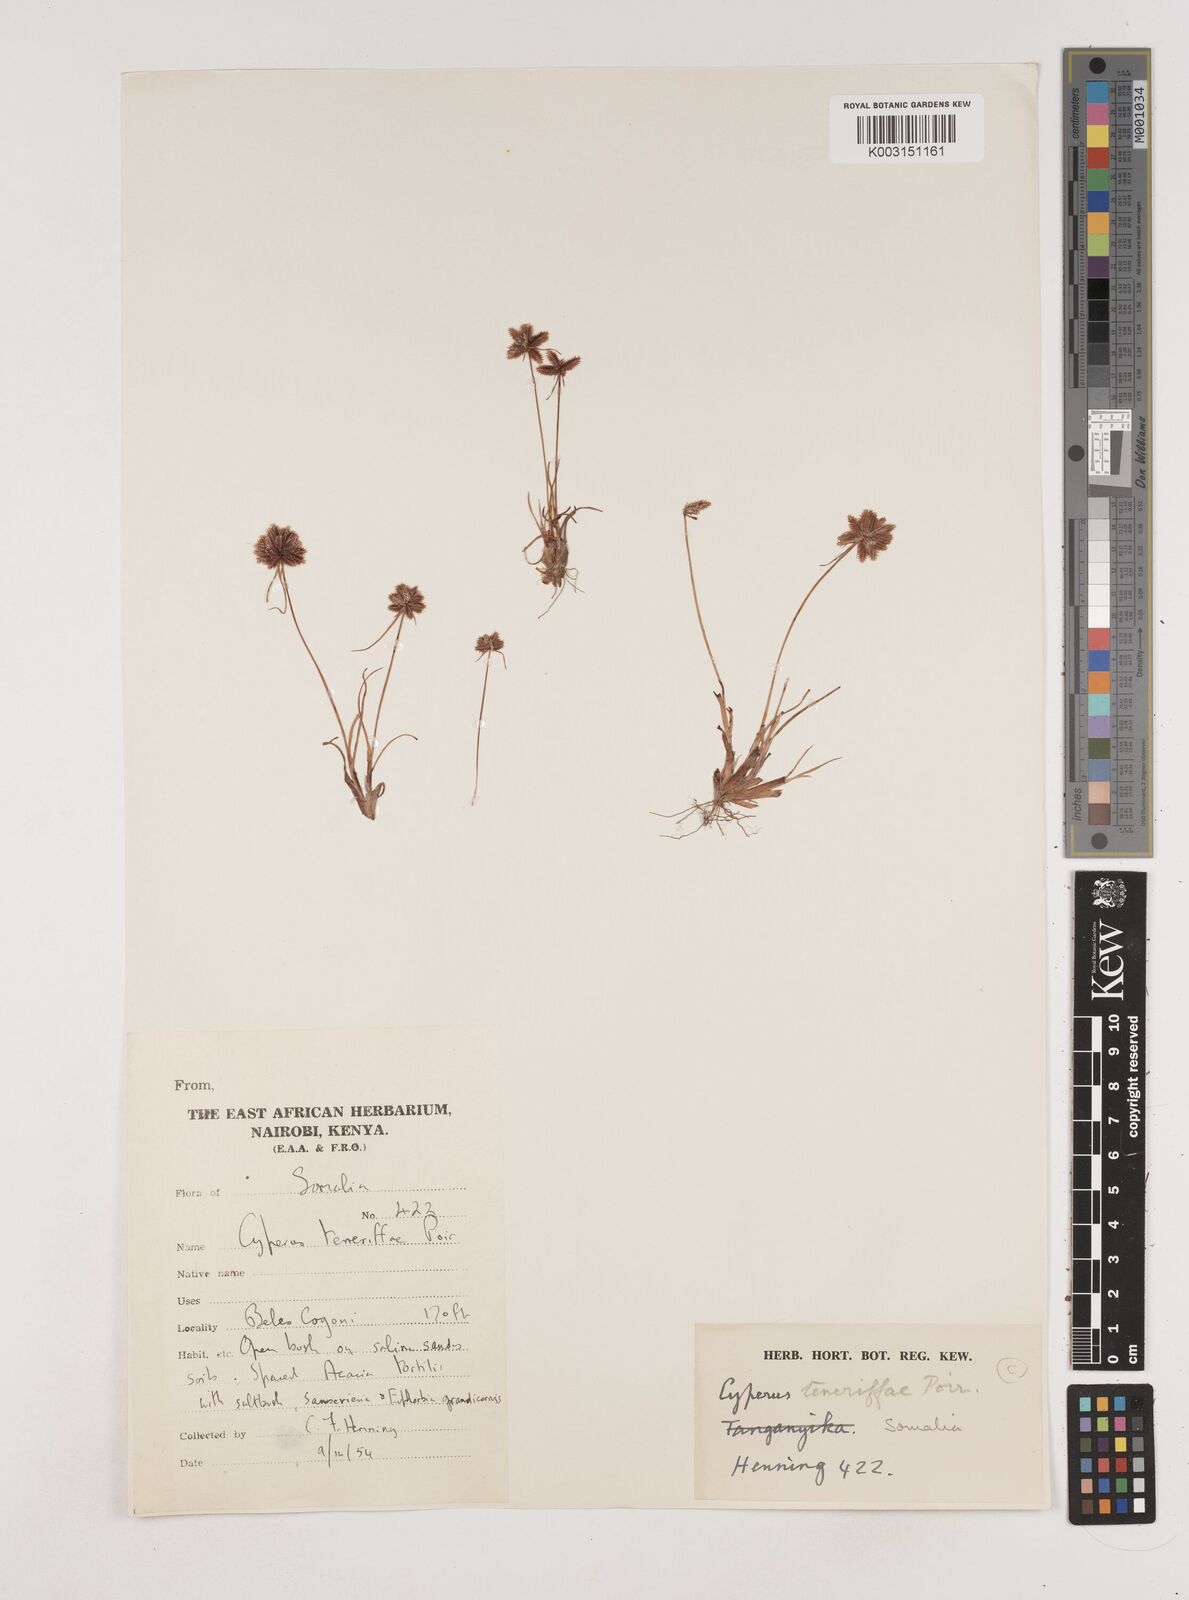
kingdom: Plantae
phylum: Tracheophyta
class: Liliopsida
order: Poales
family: Cyperaceae
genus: Cyperus
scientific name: Cyperus rubicundus
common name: Coco-grass
